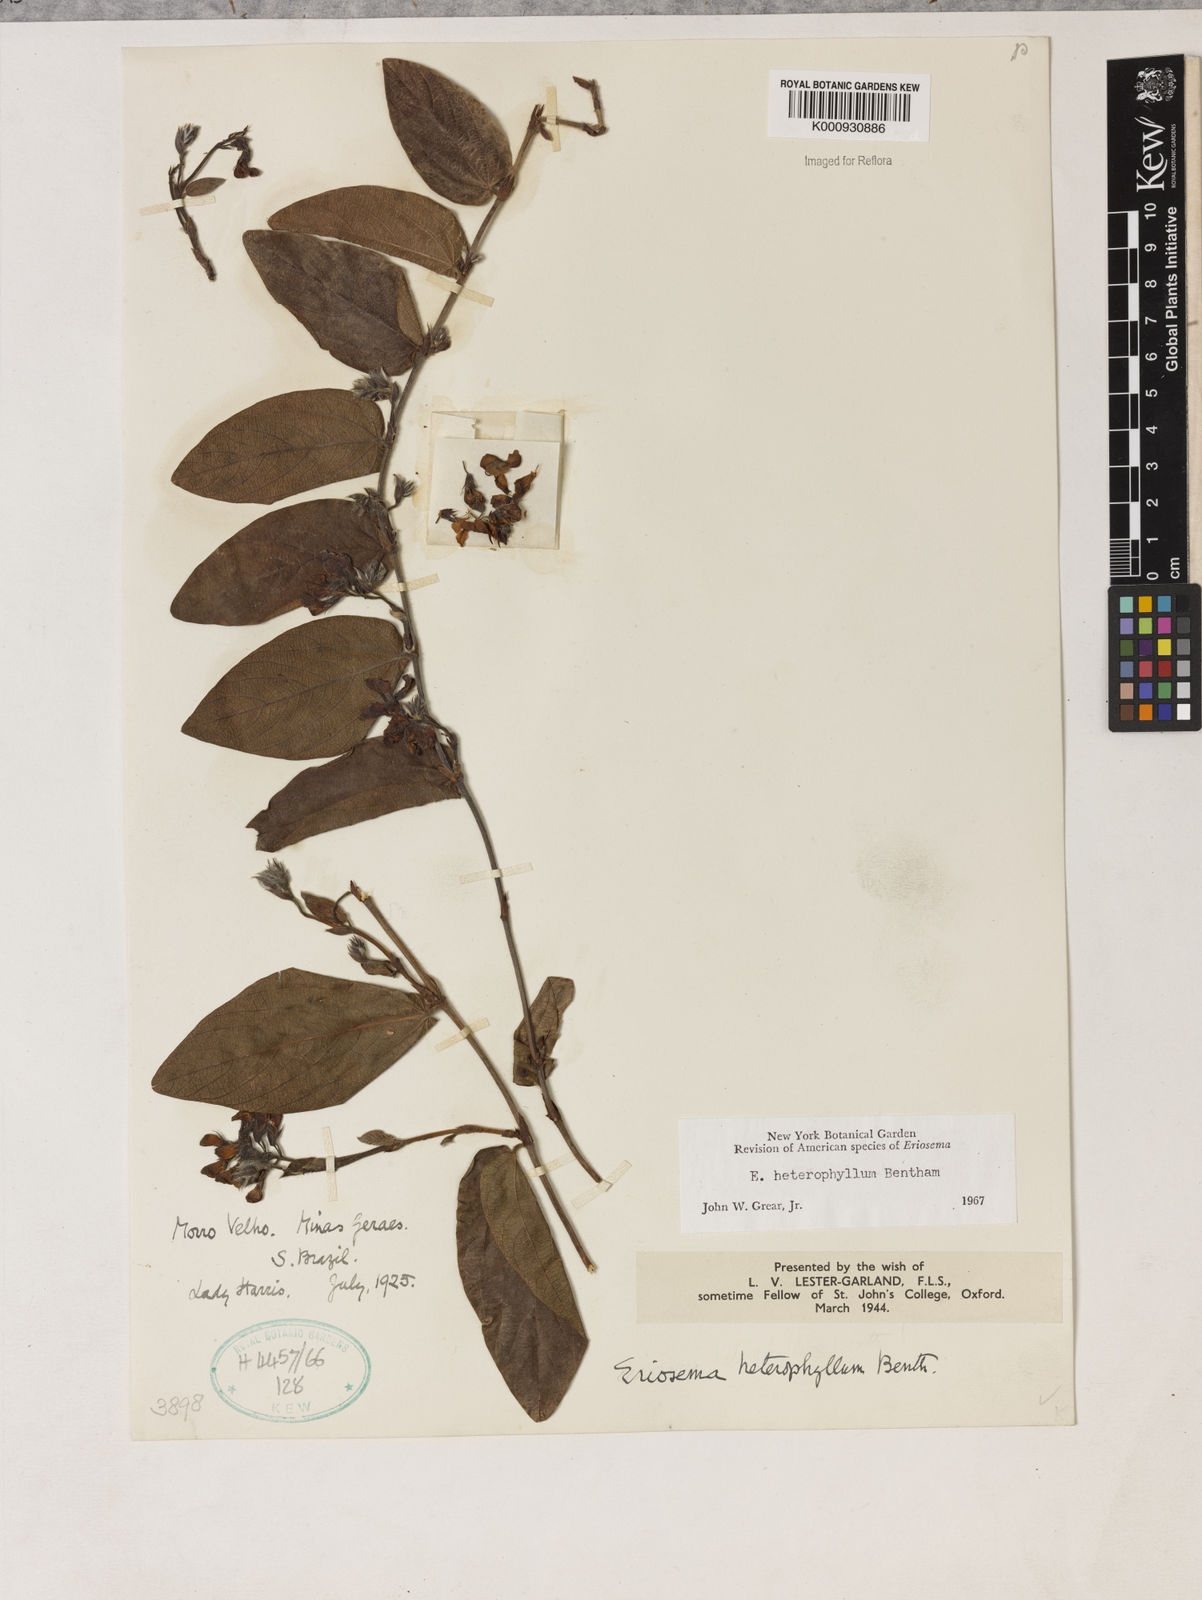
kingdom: Plantae
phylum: Tracheophyta
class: Magnoliopsida
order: Fabales
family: Fabaceae
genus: Eriosema
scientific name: Eriosema heterophyllum
